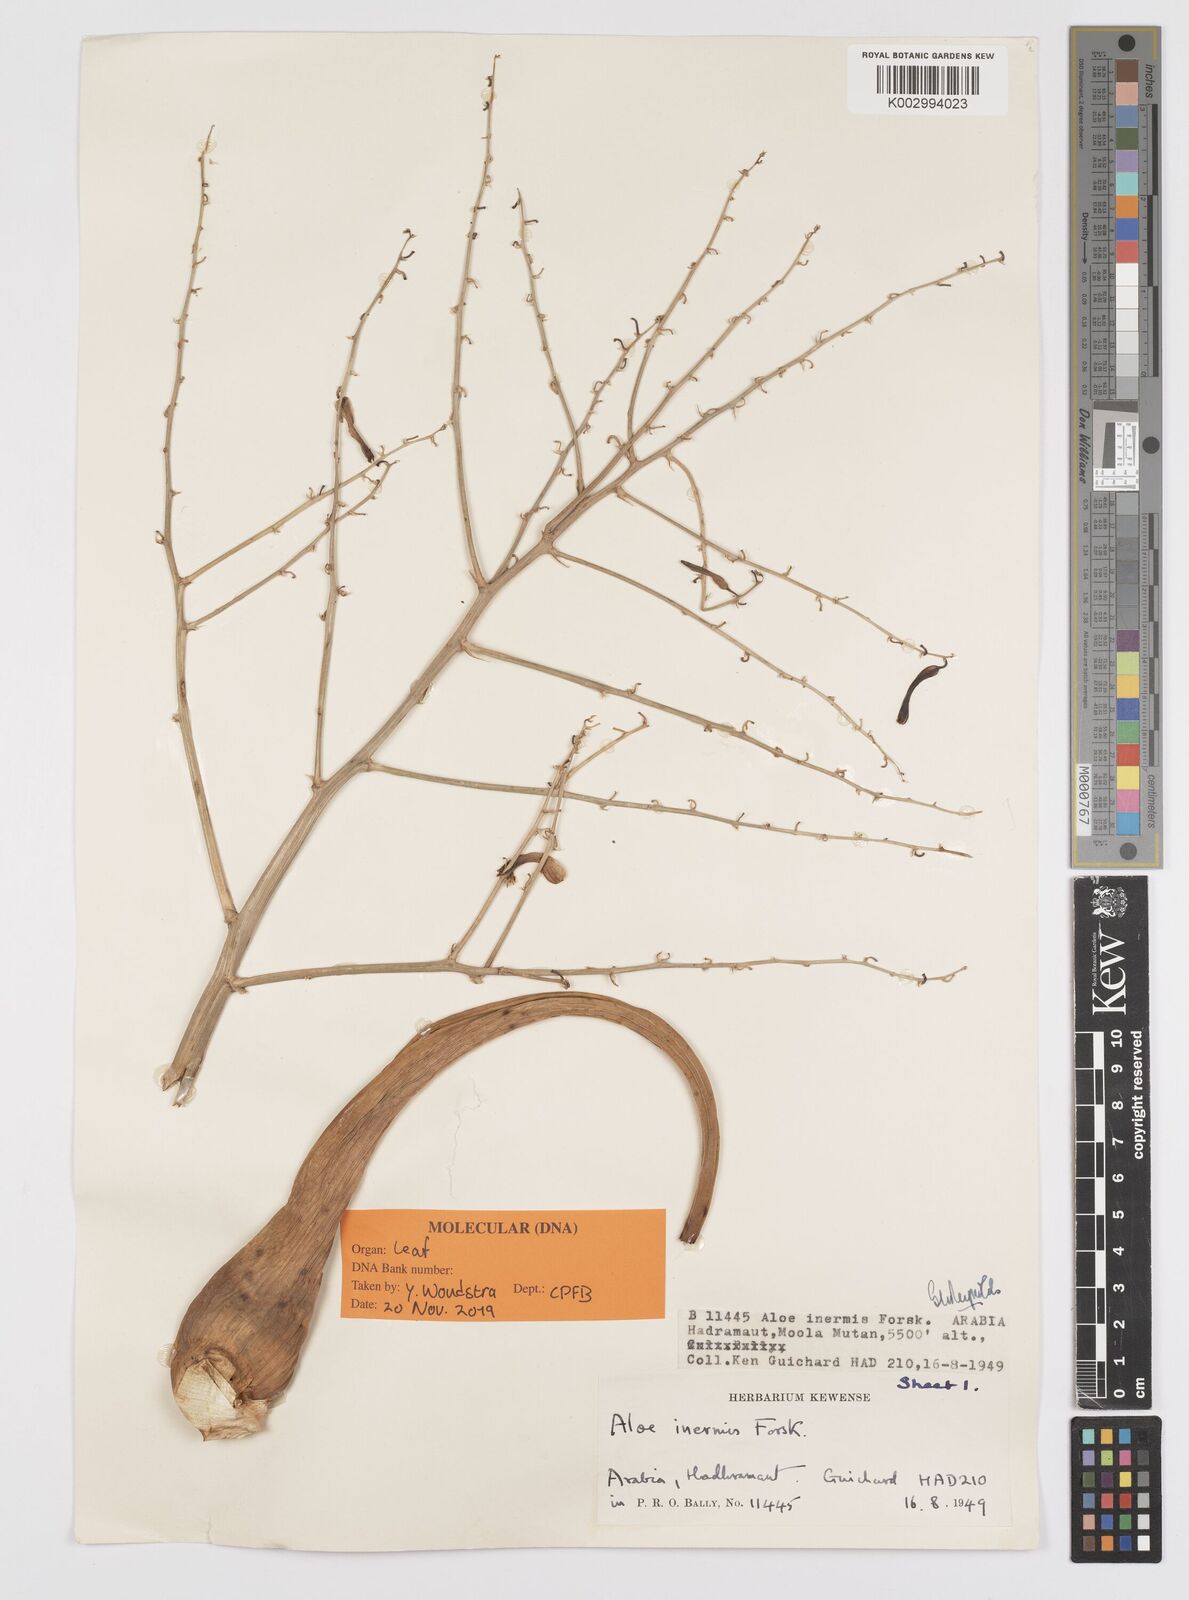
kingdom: Plantae
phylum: Tracheophyta
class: Liliopsida
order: Asparagales
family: Asphodelaceae
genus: Aloe
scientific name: Aloe inermis
